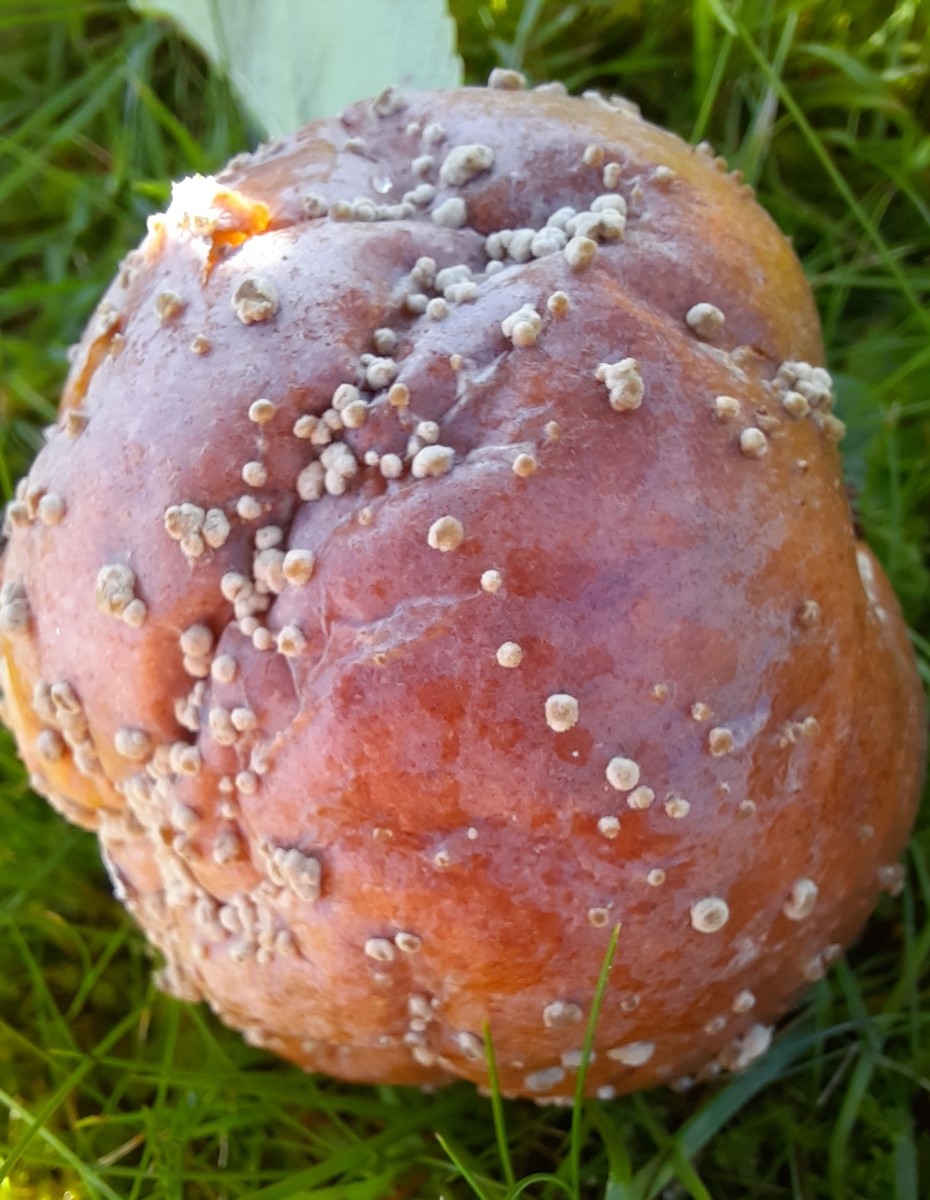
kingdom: Fungi
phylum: Ascomycota
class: Leotiomycetes
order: Helotiales
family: Sclerotiniaceae
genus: Monilinia
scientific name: Monilinia fructigena
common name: æble-knoldskive
